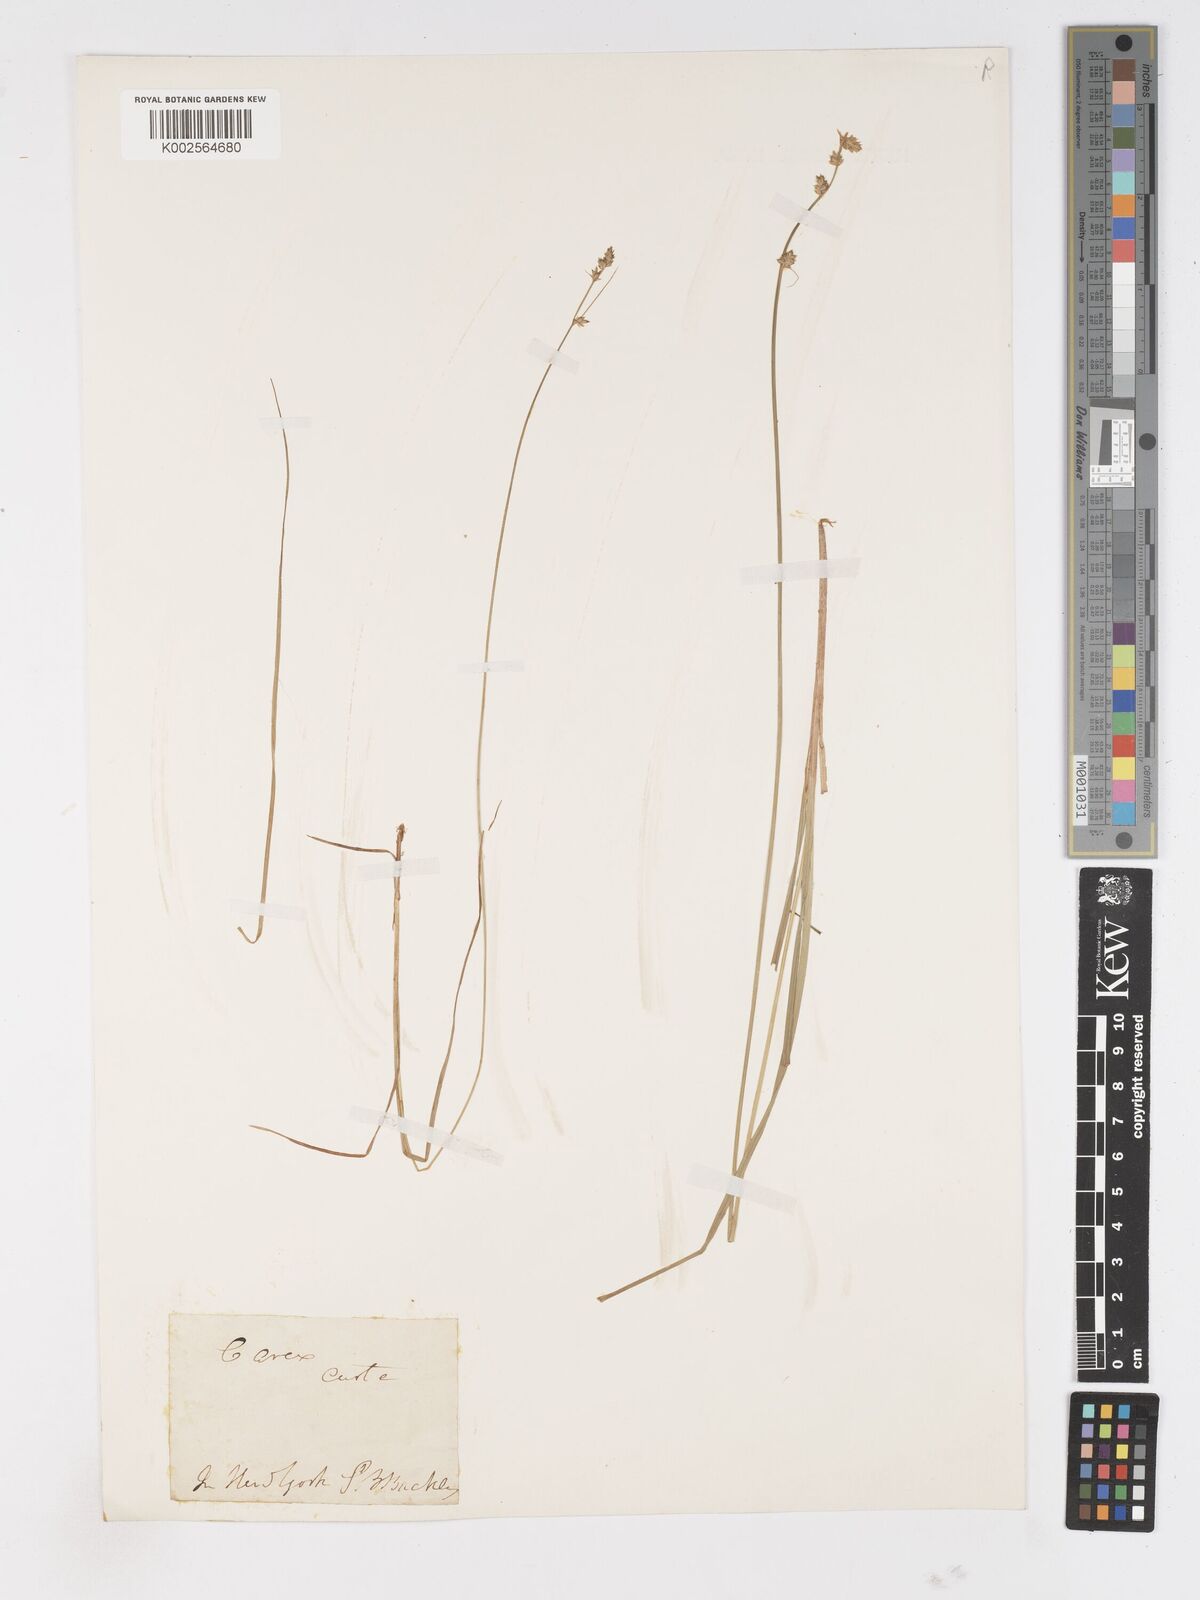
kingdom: Plantae
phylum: Tracheophyta
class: Liliopsida
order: Poales
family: Cyperaceae
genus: Carex
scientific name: Carex curta
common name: White sedge
